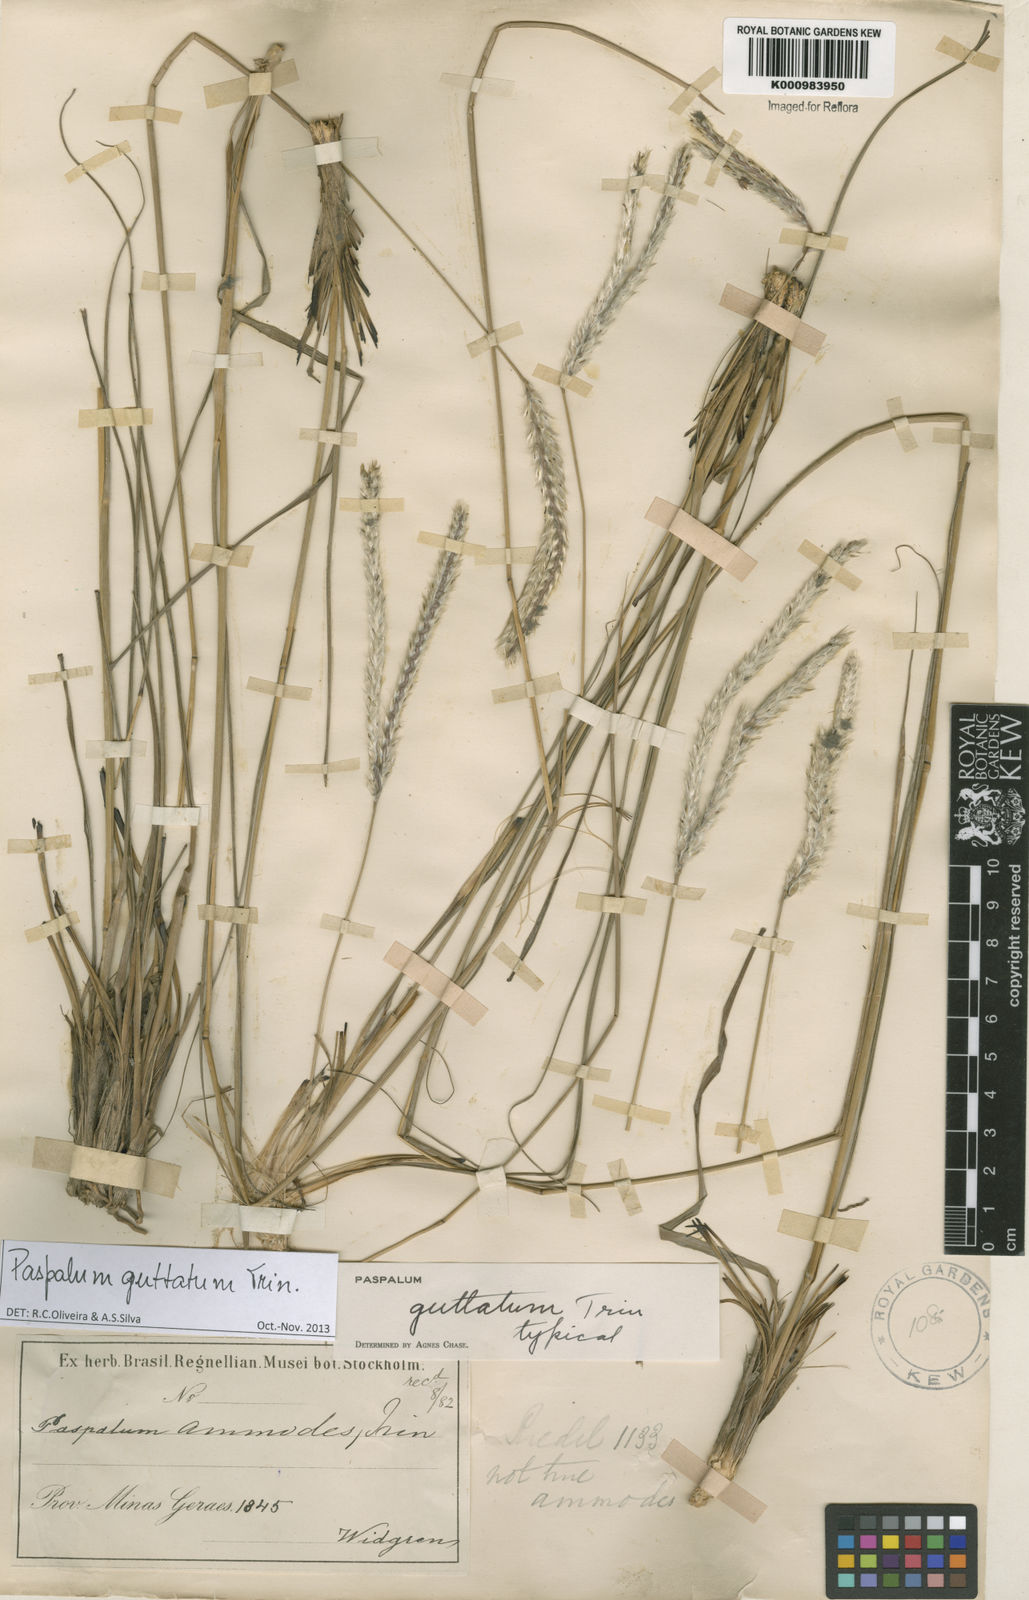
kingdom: Plantae
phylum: Tracheophyta
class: Liliopsida
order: Poales
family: Poaceae
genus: Paspalum
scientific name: Paspalum guttatum
